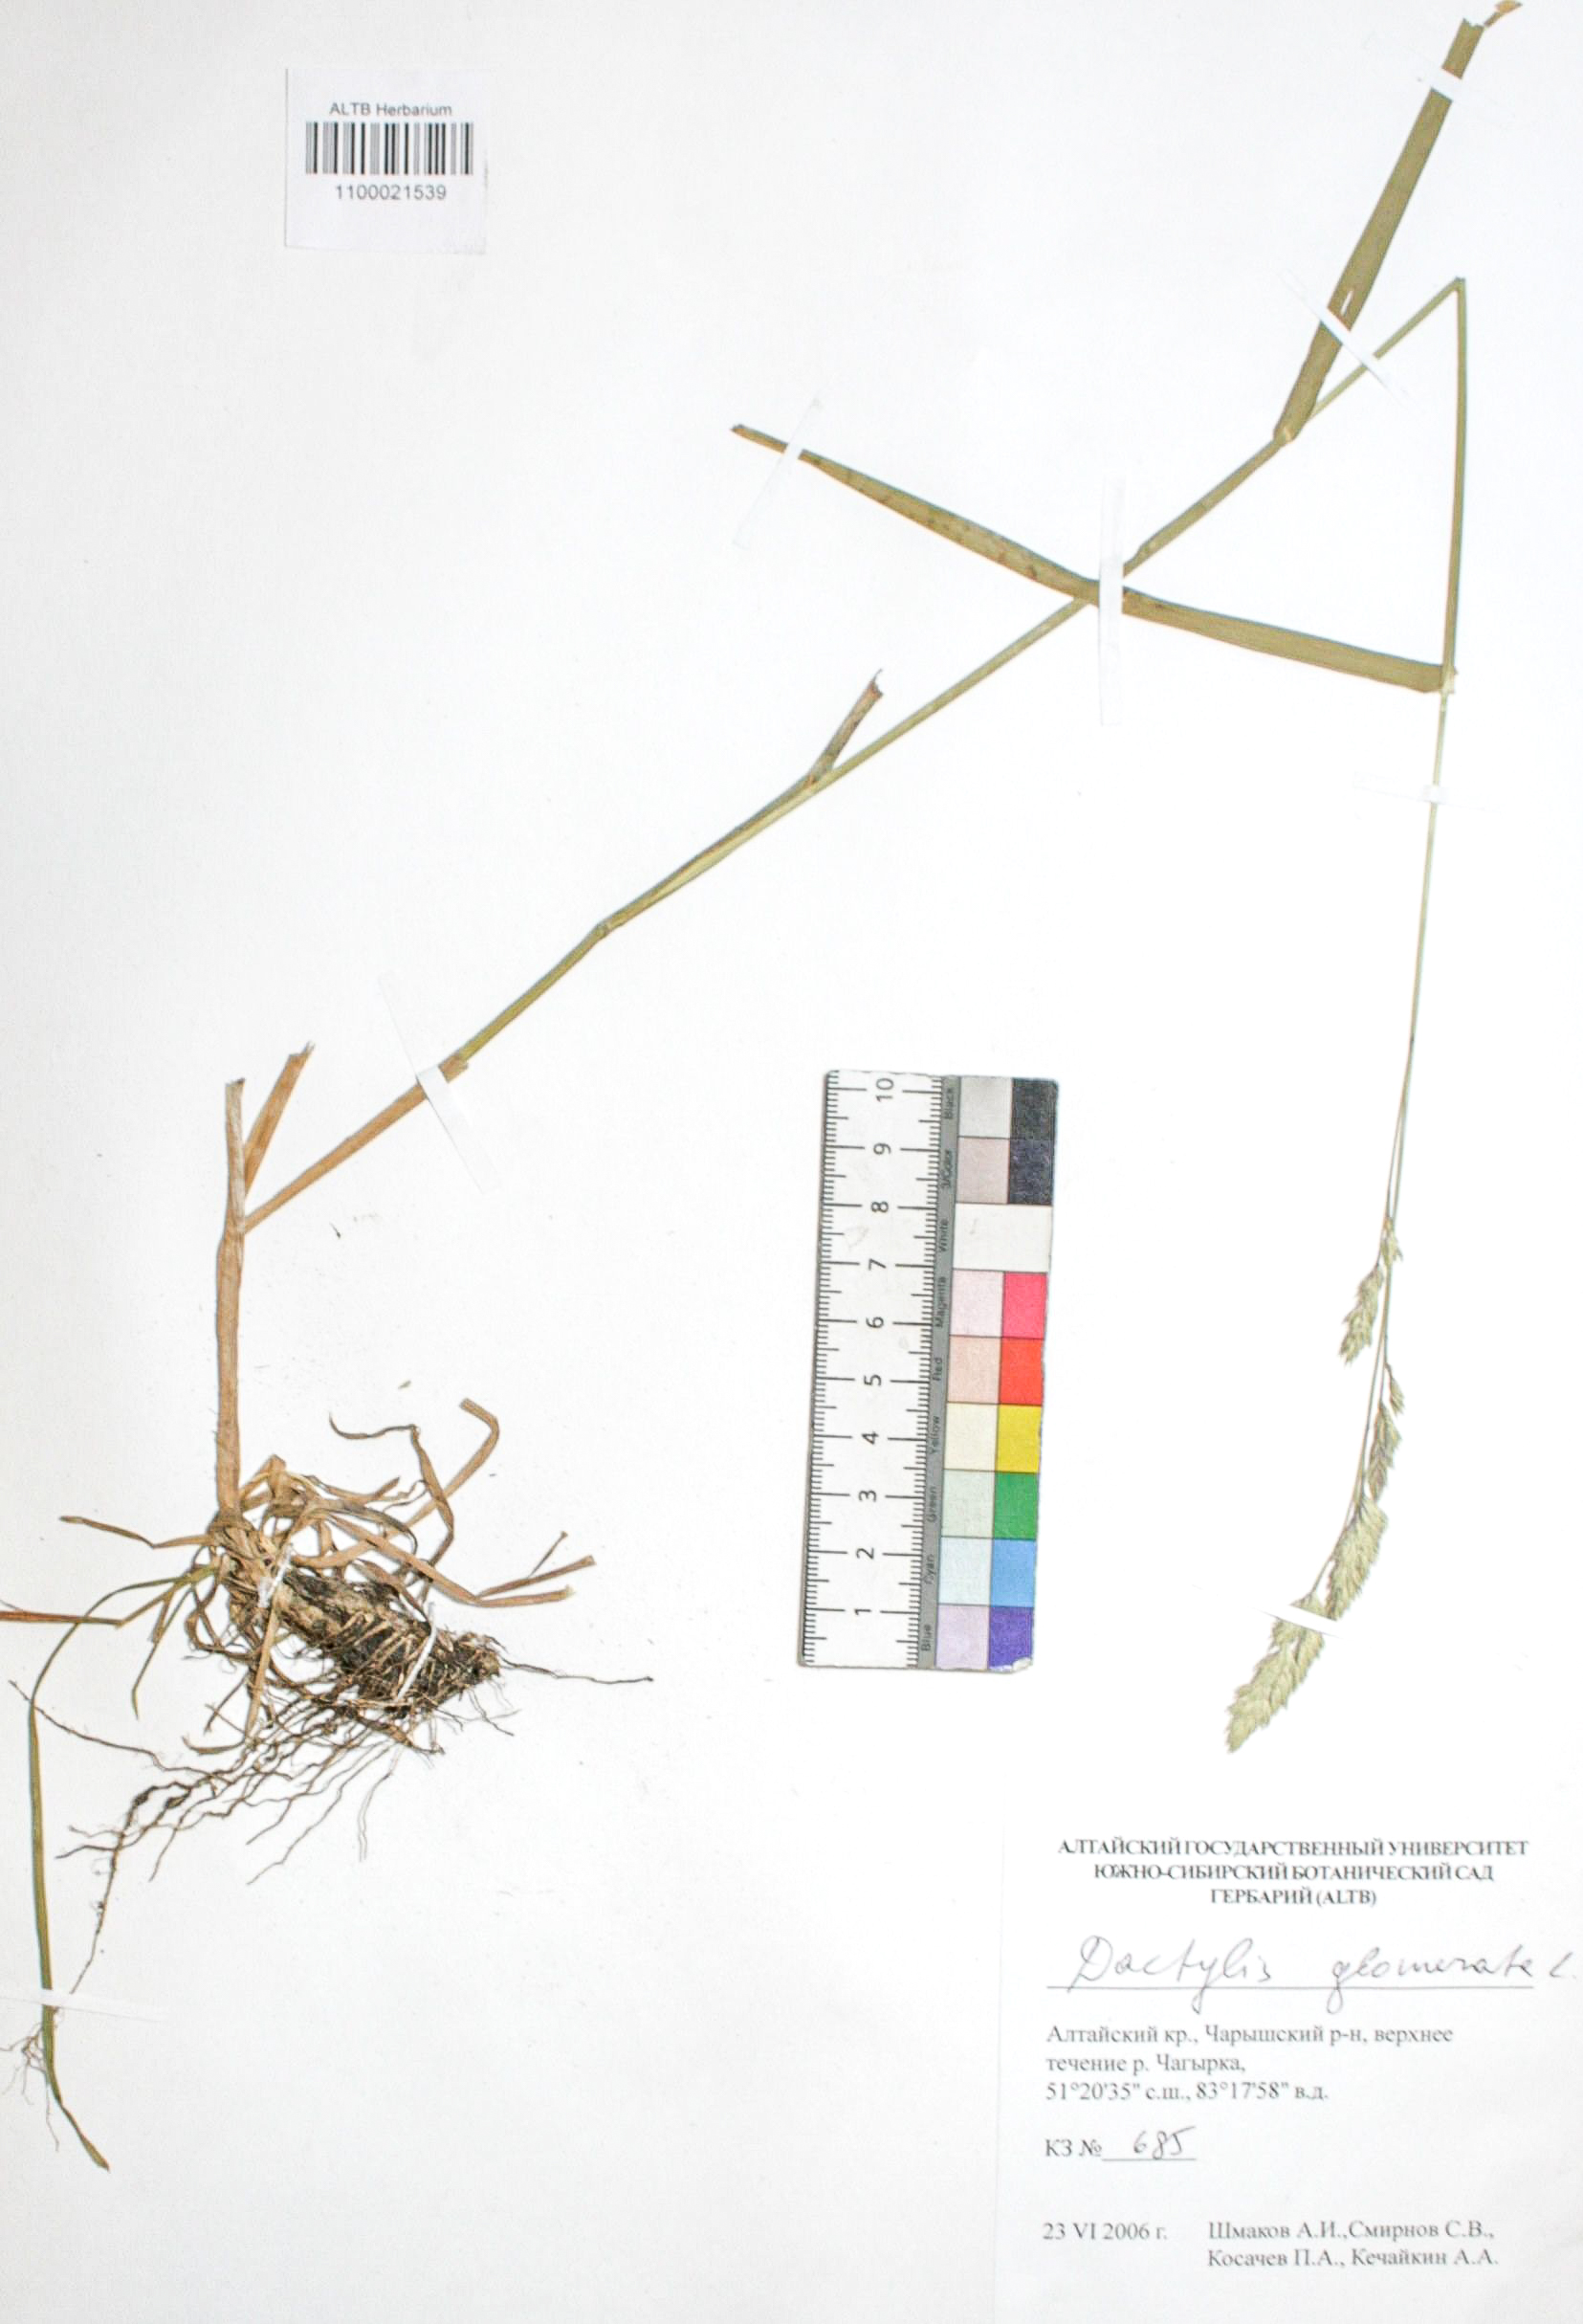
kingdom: Plantae
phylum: Tracheophyta
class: Liliopsida
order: Poales
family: Poaceae
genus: Dactylis
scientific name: Dactylis glomerata
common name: Orchardgrass
